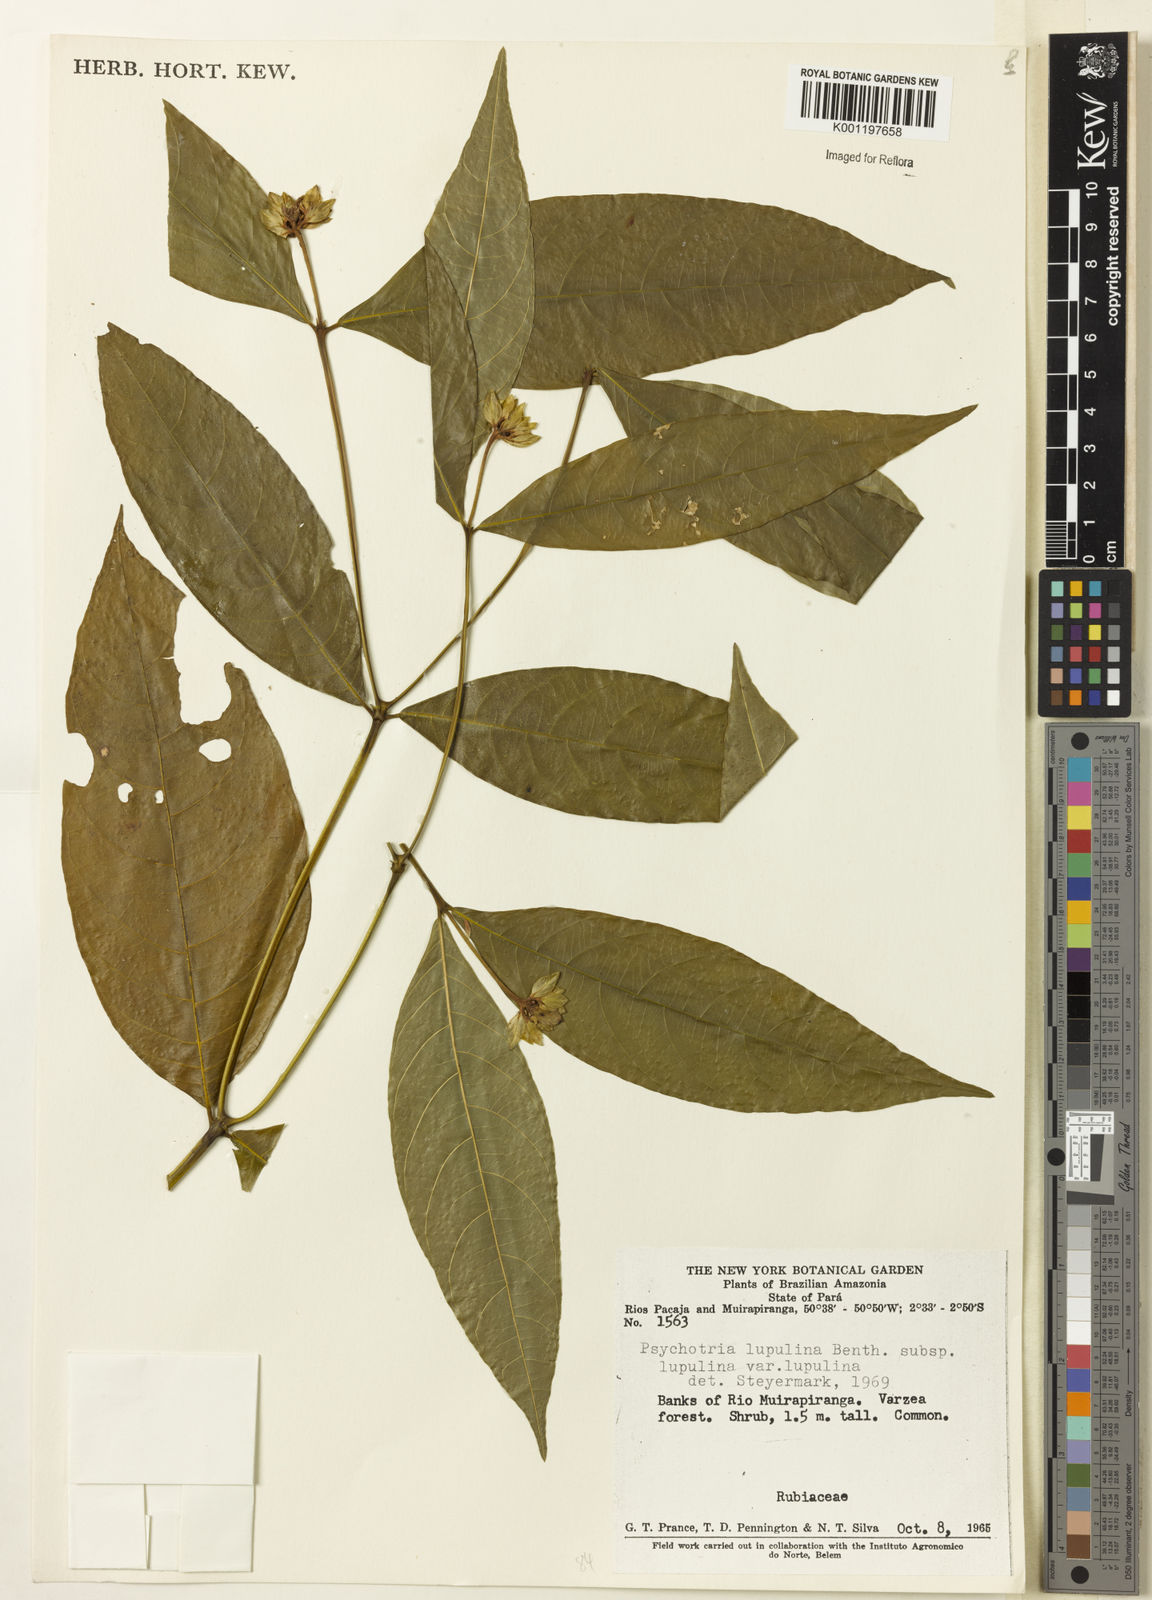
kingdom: Plantae
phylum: Tracheophyta
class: Magnoliopsida
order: Gentianales
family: Rubiaceae
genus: Palicourea
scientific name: Palicourea justiciifolia
